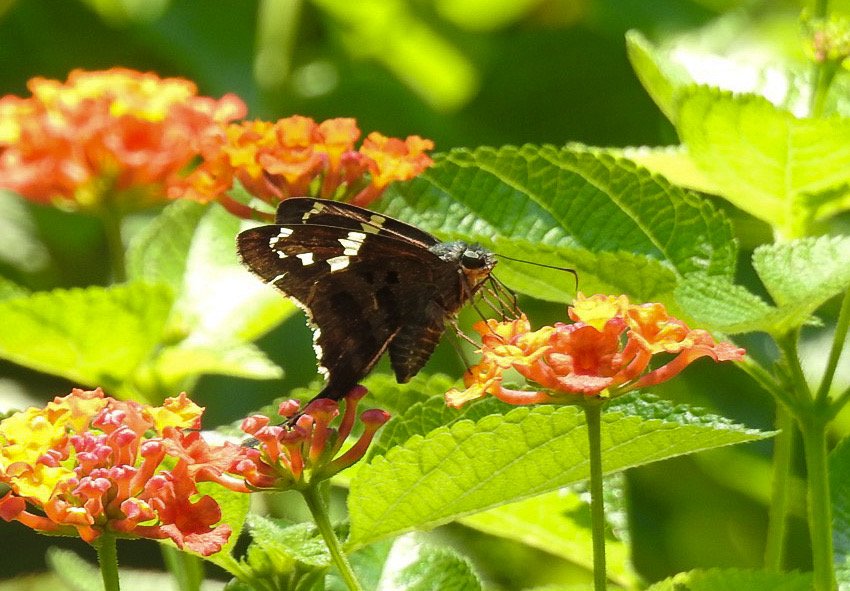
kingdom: Animalia
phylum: Arthropoda
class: Insecta
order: Lepidoptera
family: Hesperiidae
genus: Urbanus
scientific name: Urbanus proteus
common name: Long-tailed Skipper
